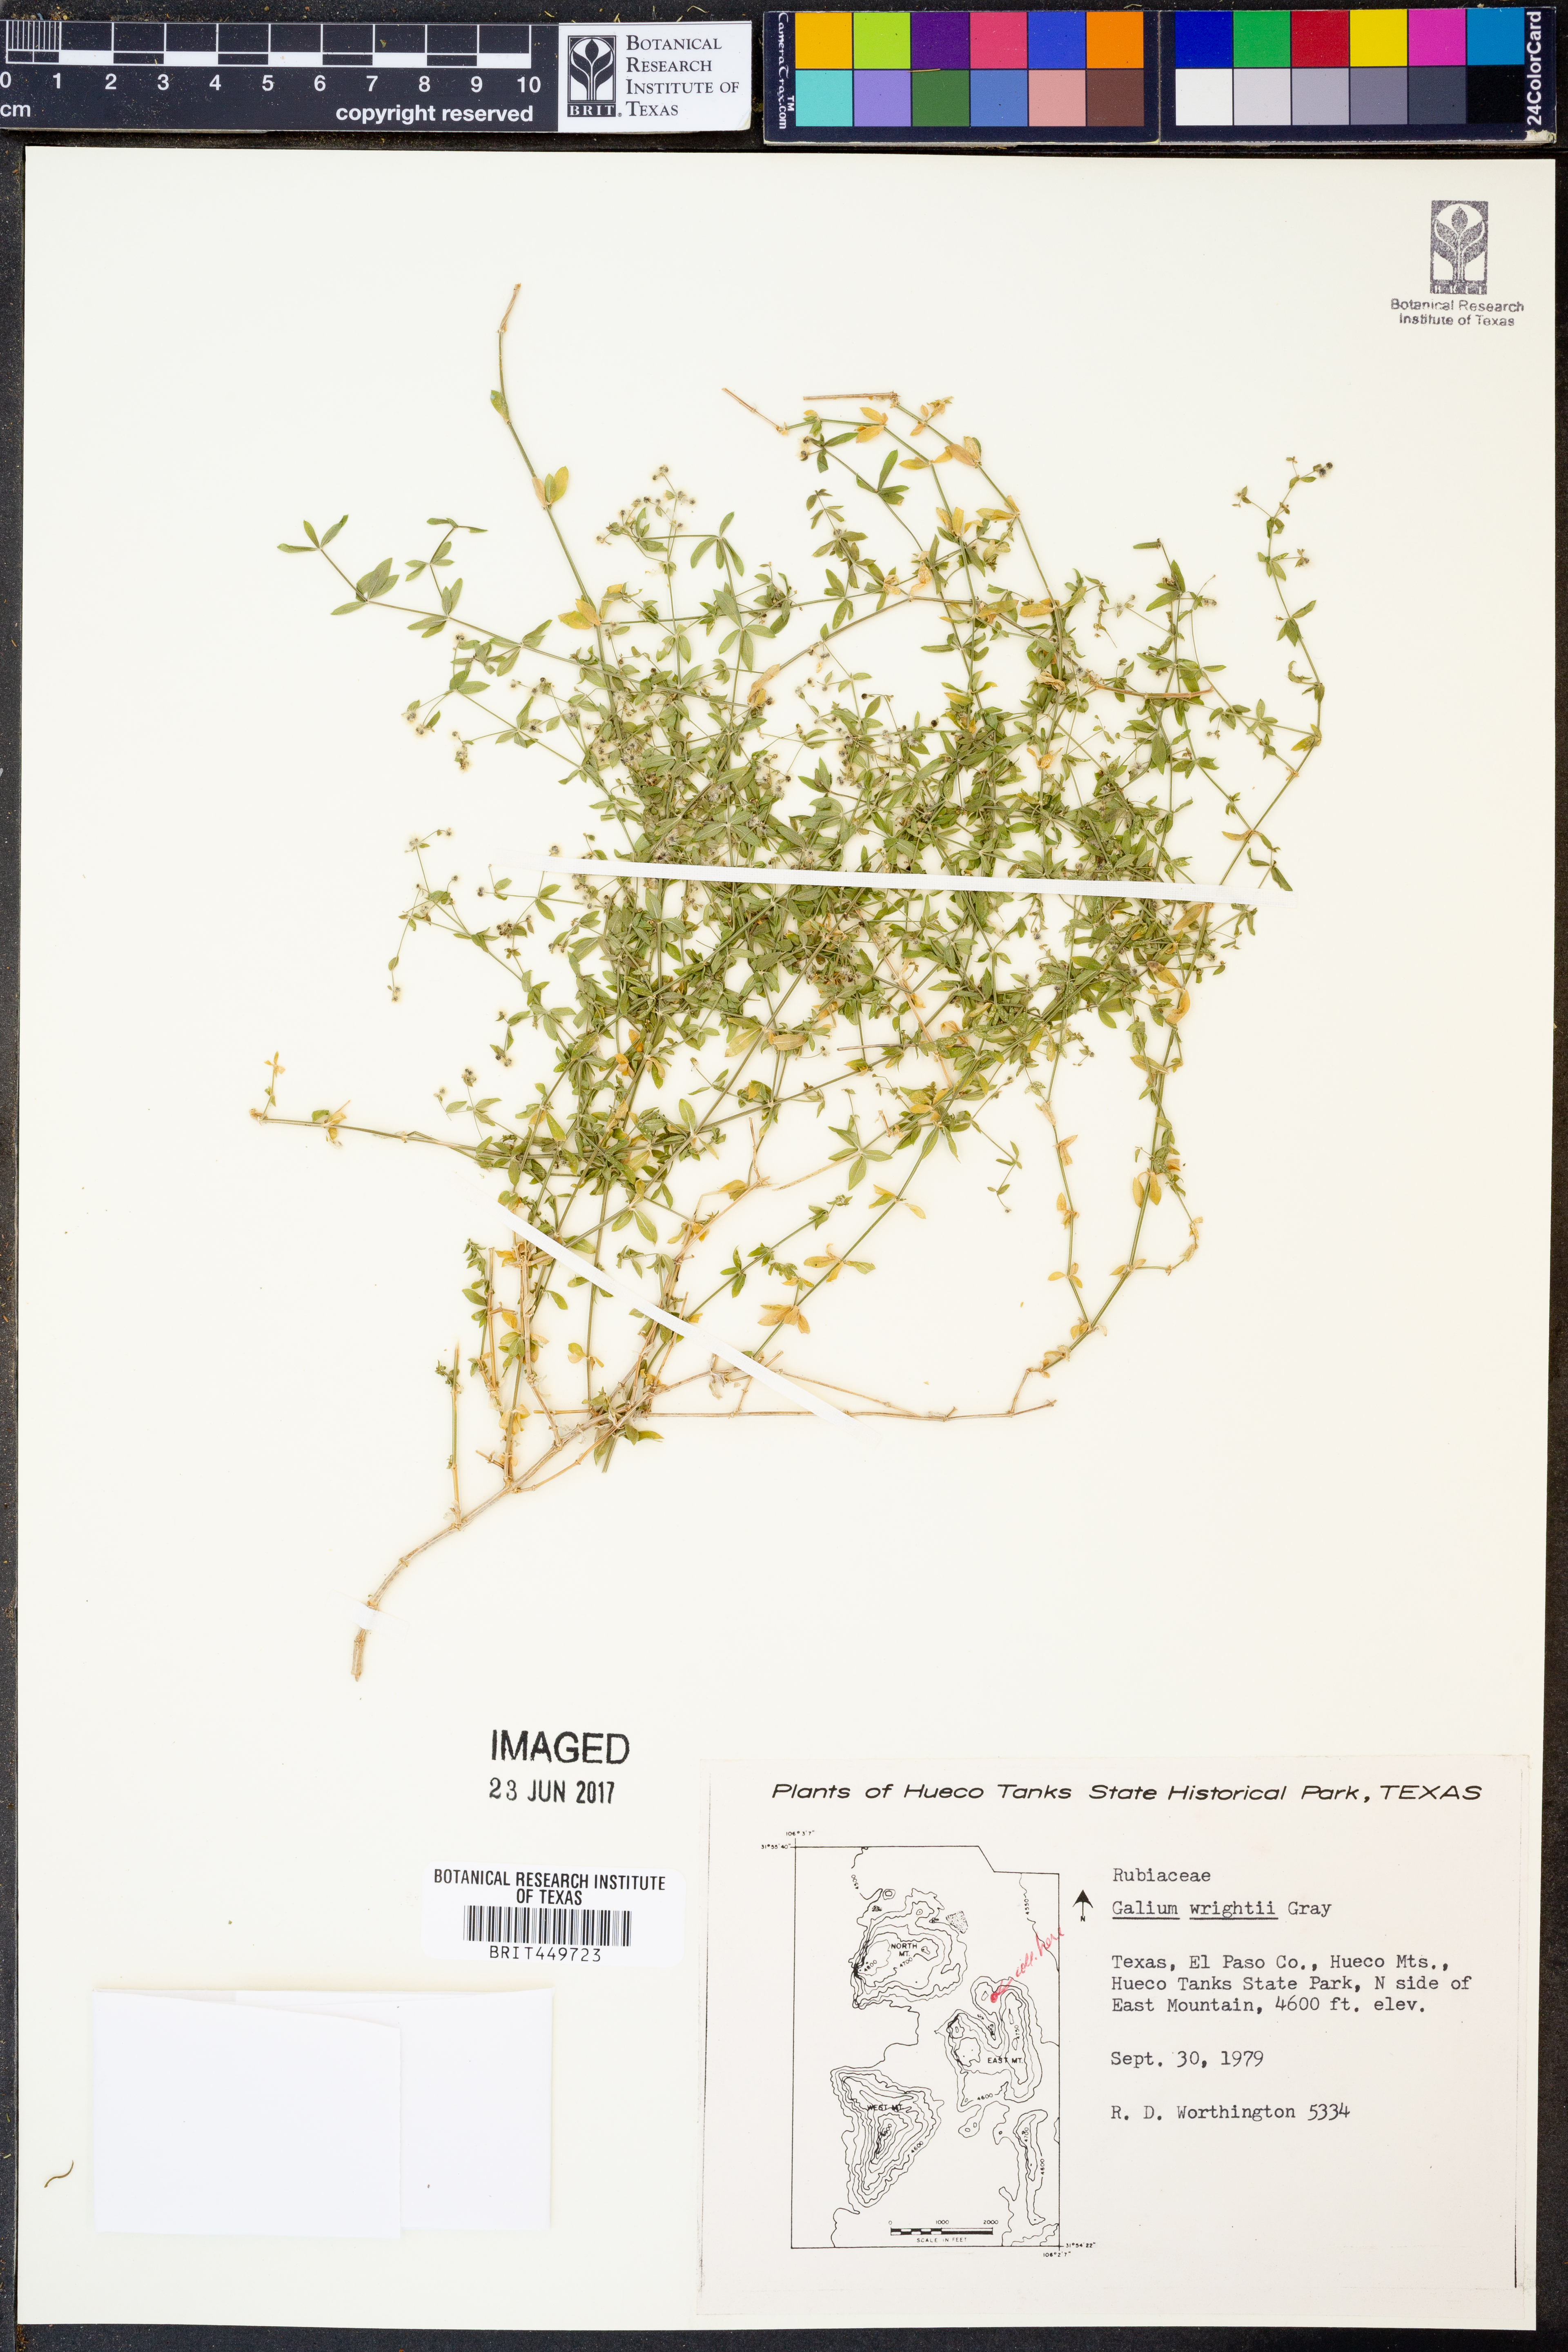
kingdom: Plantae
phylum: Tracheophyta
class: Magnoliopsida
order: Gentianales
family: Rubiaceae
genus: Galium
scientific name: Galium wrightii
